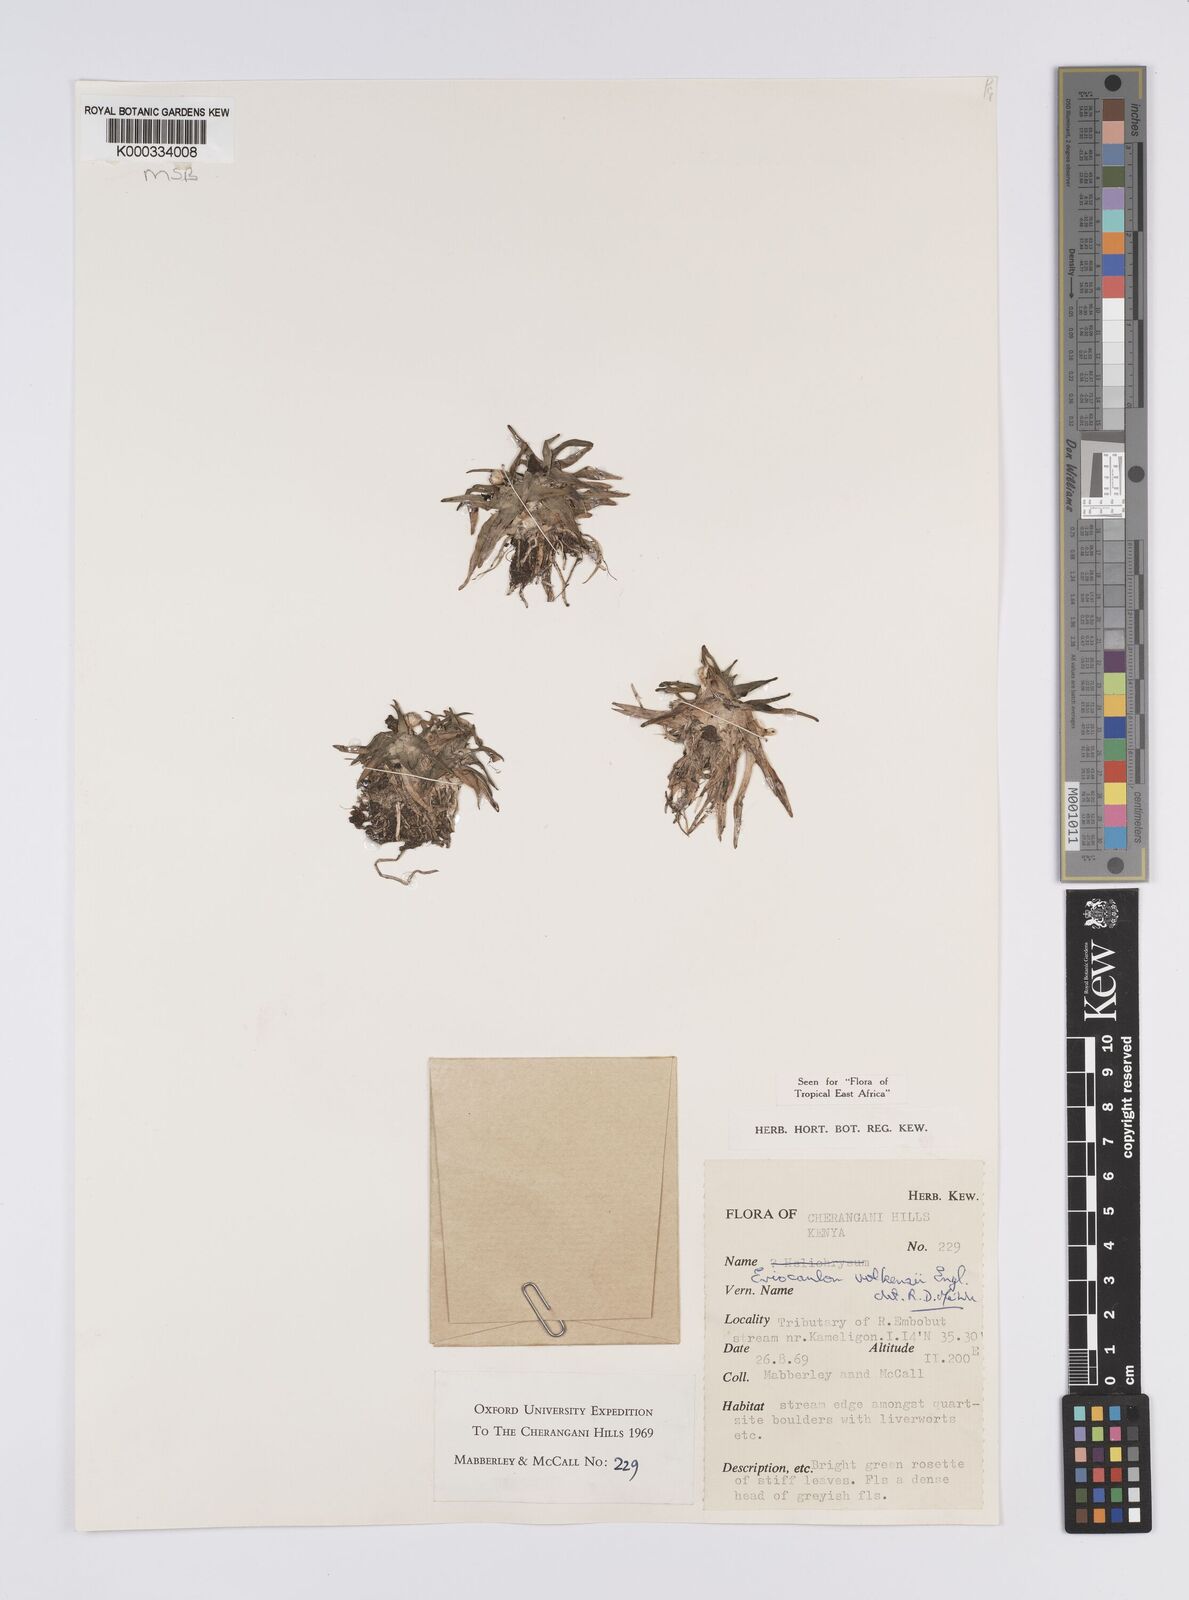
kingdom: Plantae
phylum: Tracheophyta
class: Liliopsida
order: Poales
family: Eriocaulaceae
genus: Eriocaulon
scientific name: Eriocaulon volkensii
